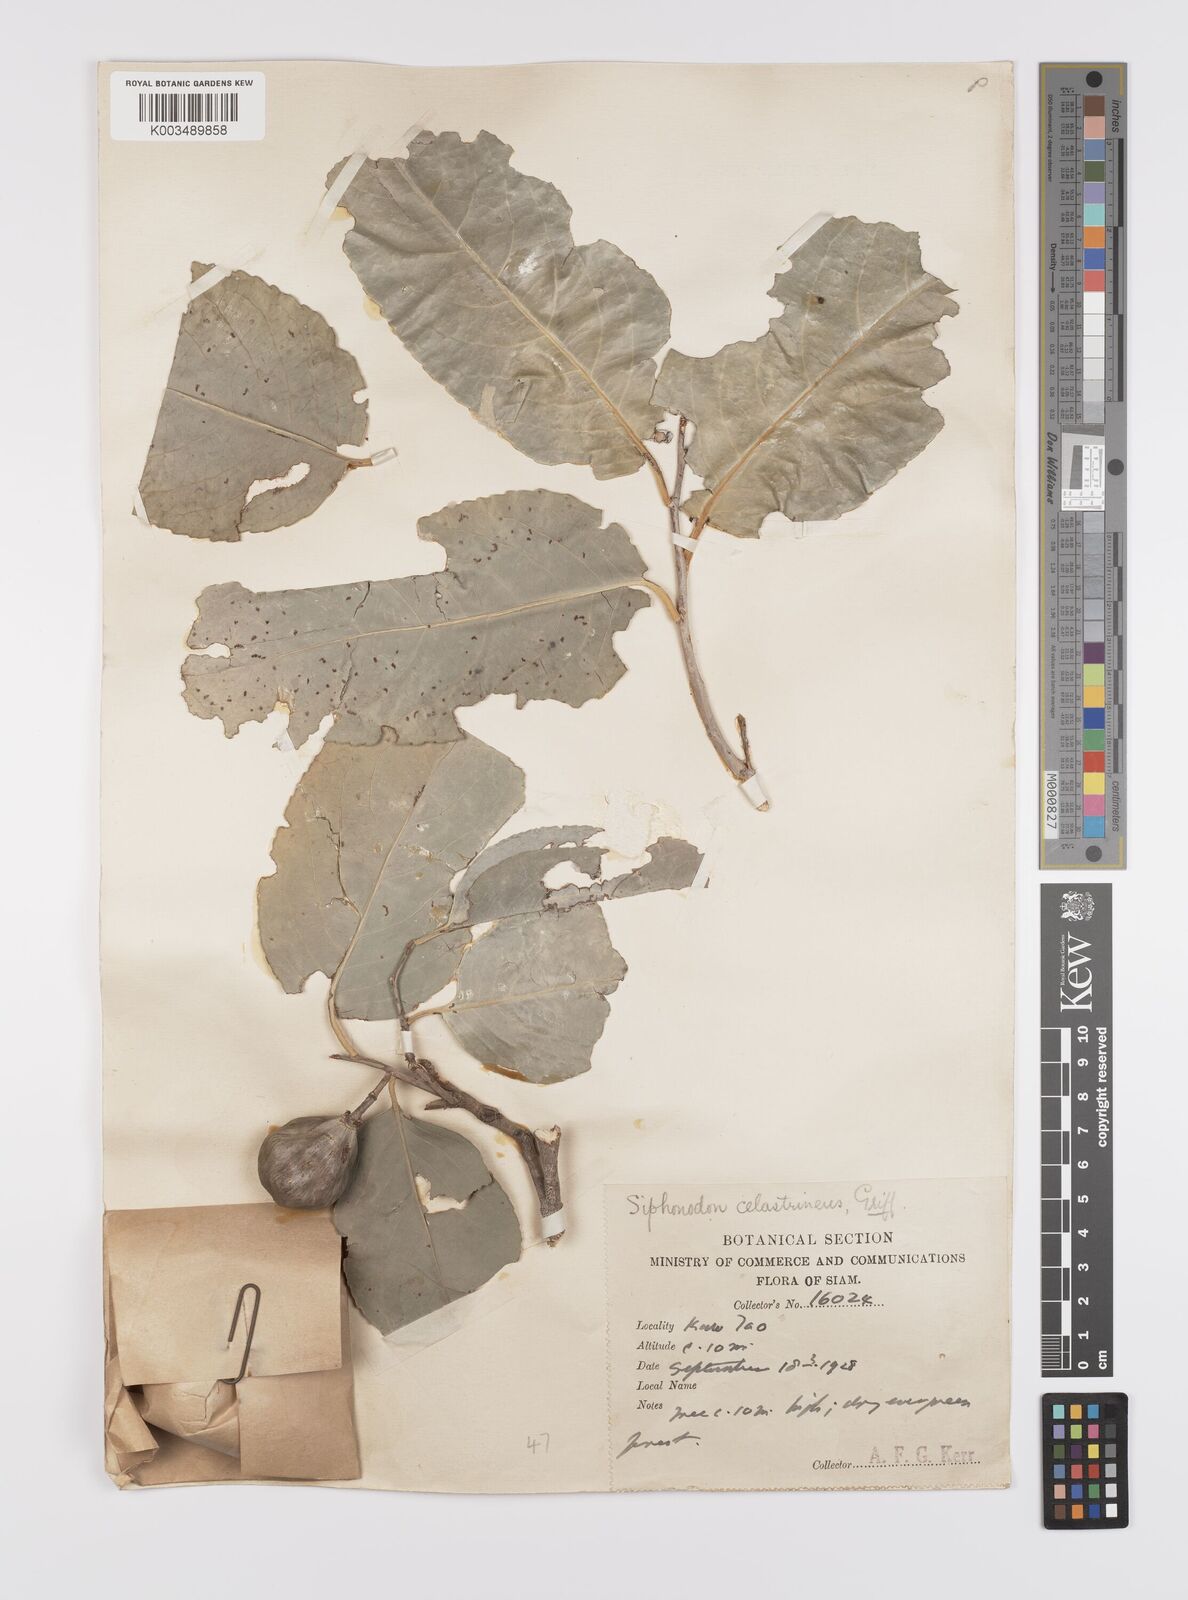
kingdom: Plantae
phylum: Tracheophyta
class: Magnoliopsida
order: Celastrales
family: Celastraceae
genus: Siphonodon
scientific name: Siphonodon celastrineus
